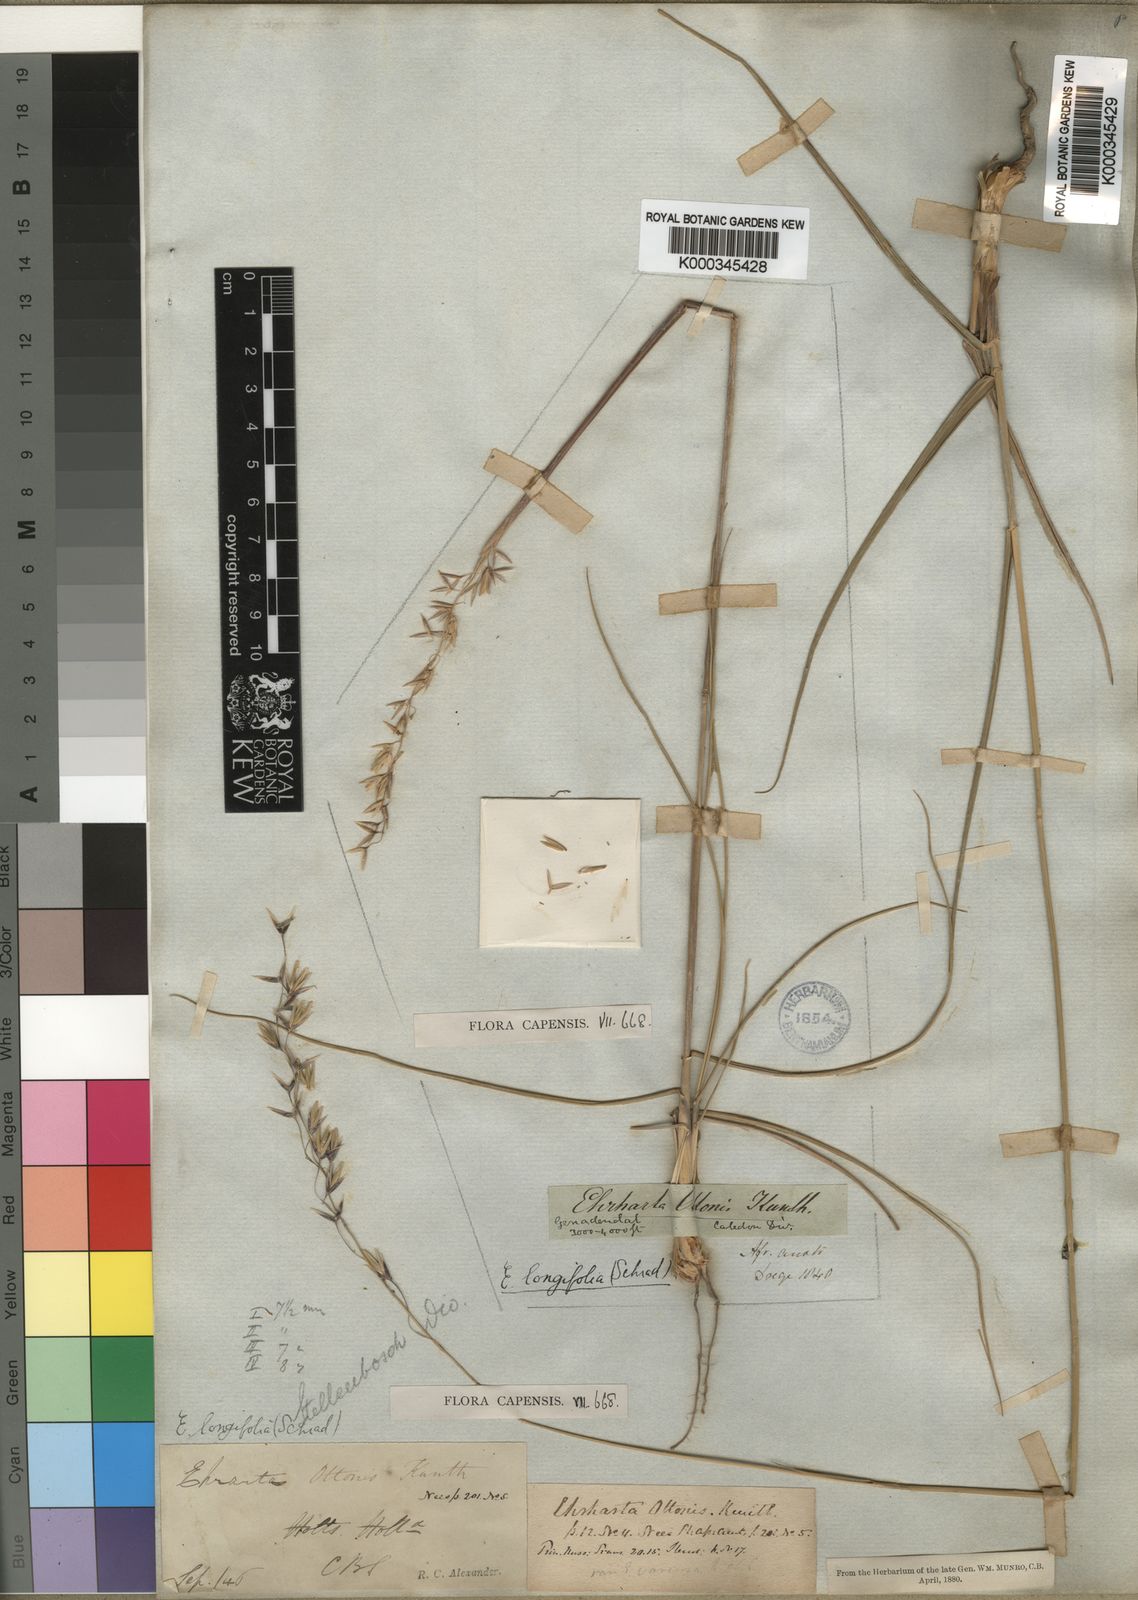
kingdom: Plantae
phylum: Tracheophyta
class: Liliopsida
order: Poales
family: Poaceae
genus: Ehrharta
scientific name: Ehrharta longifolia
